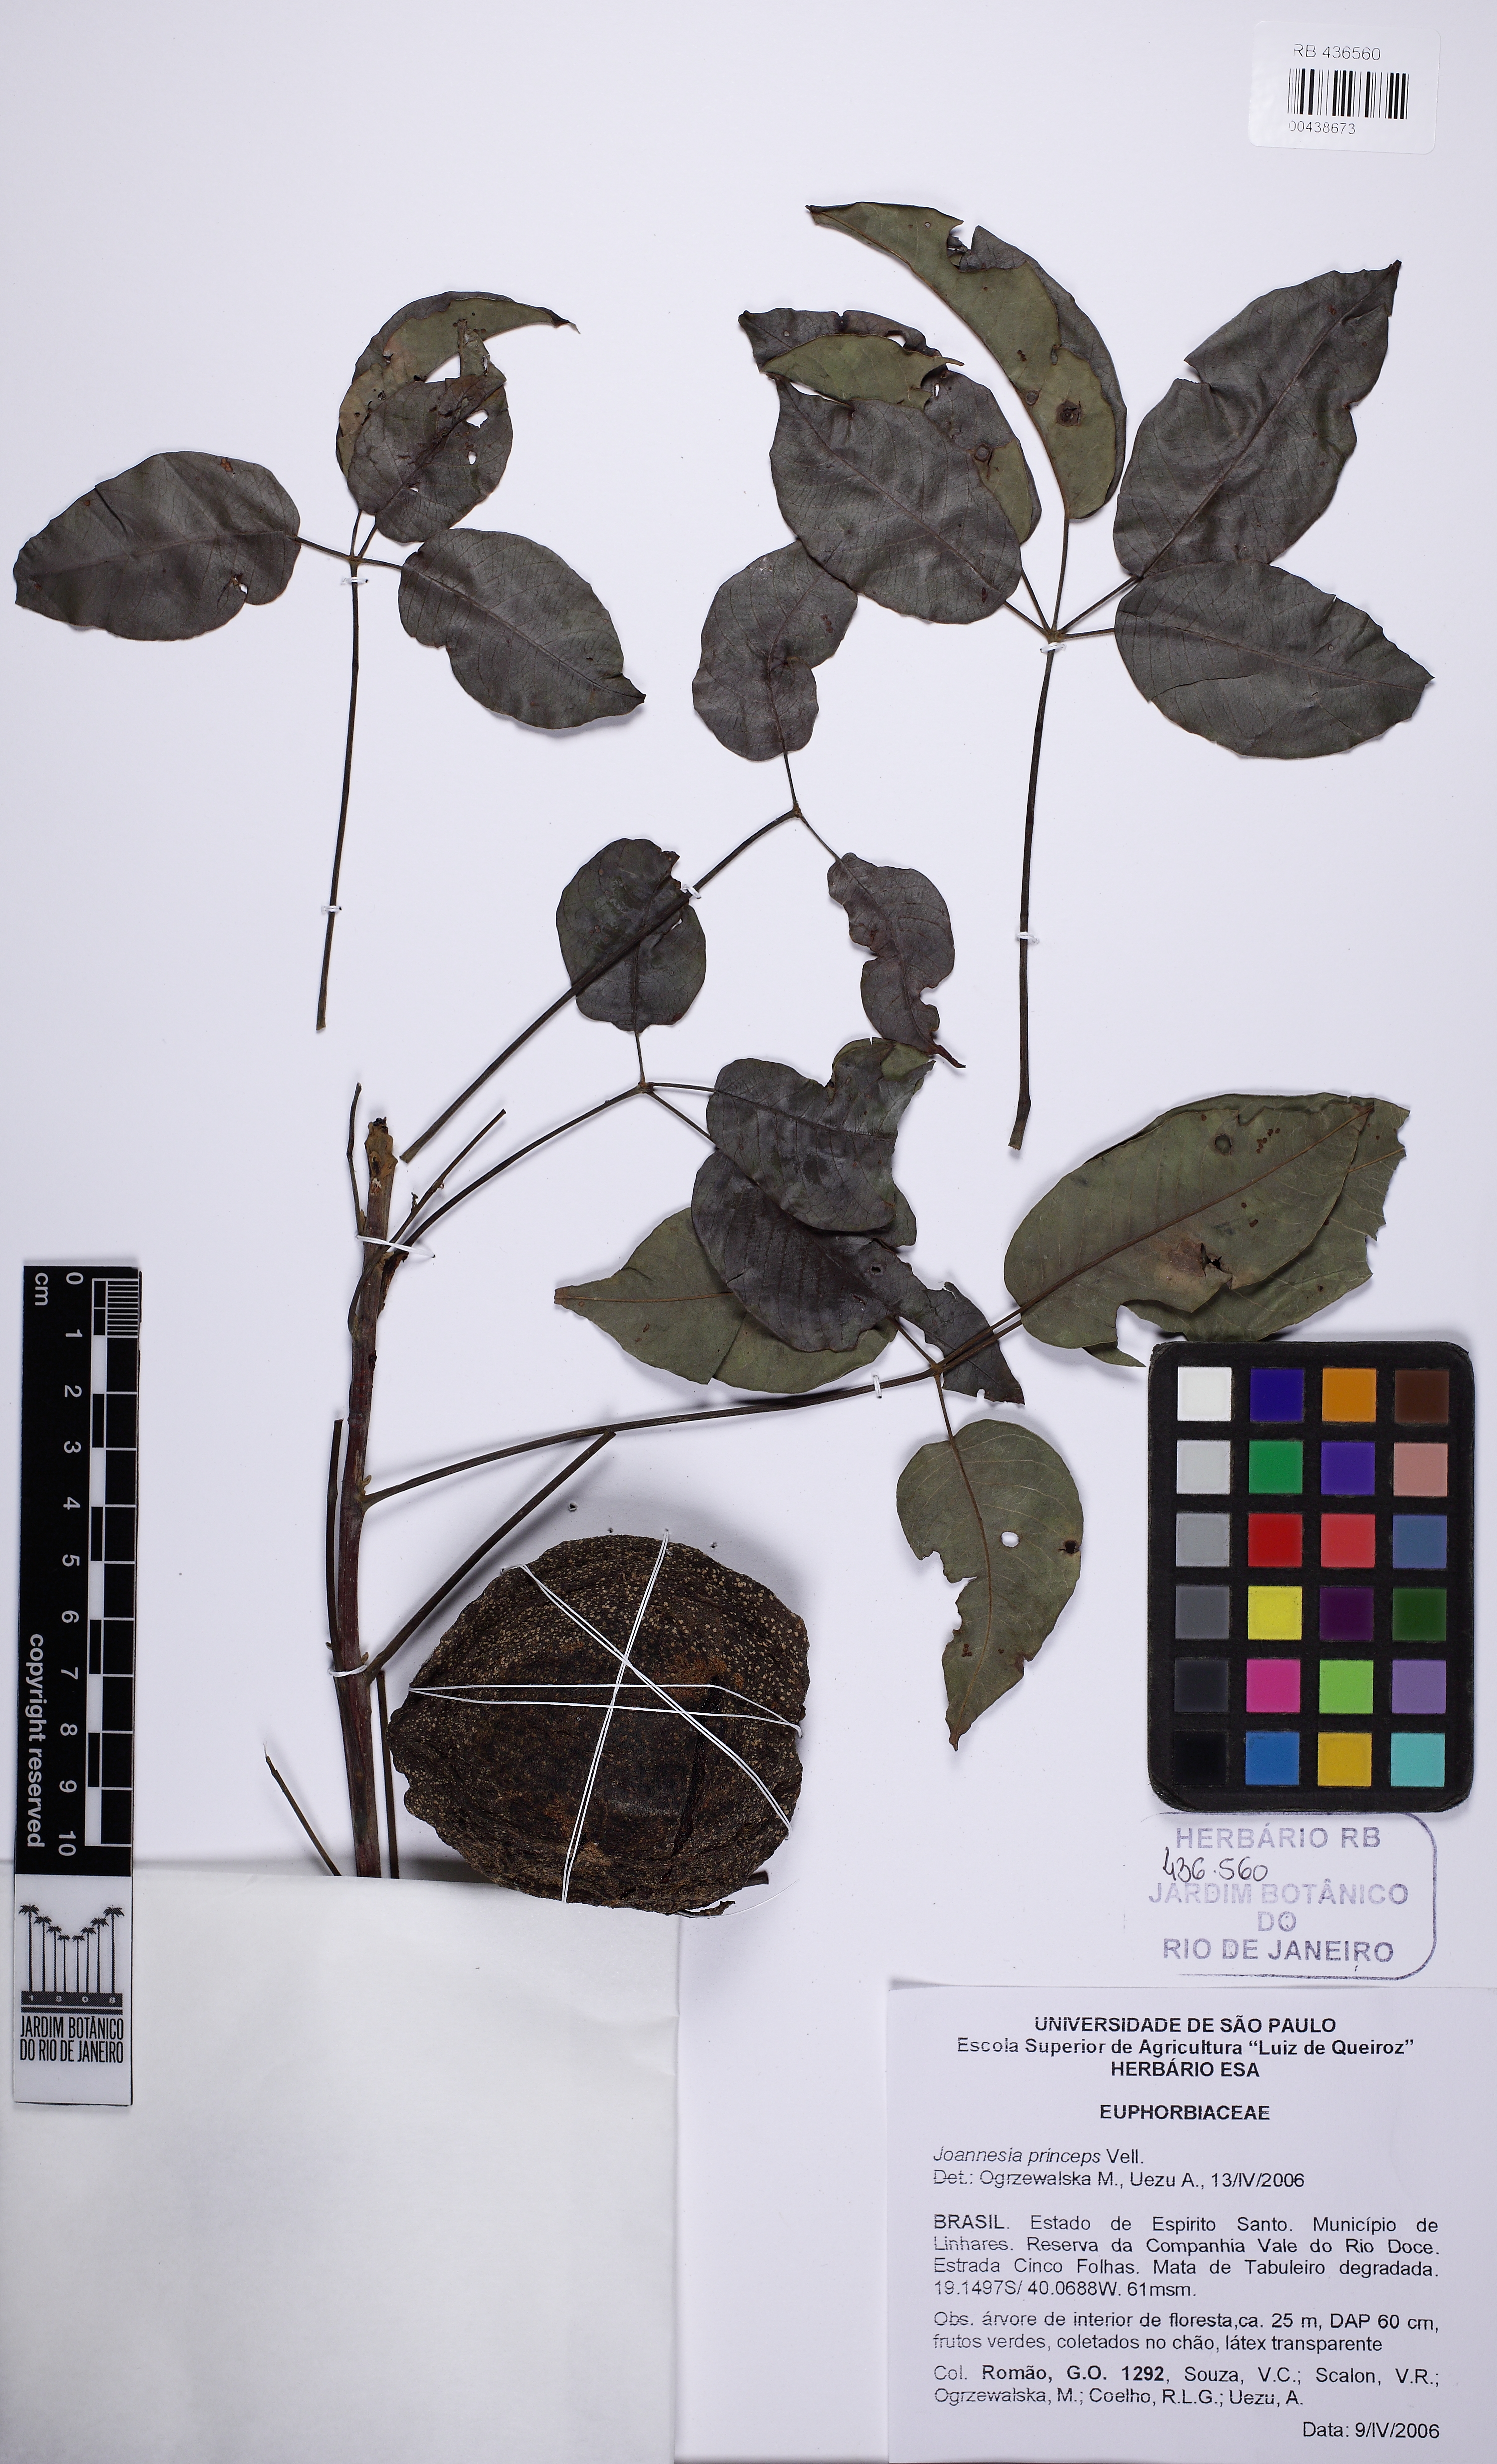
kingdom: Plantae
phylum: Tracheophyta
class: Magnoliopsida
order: Malpighiales
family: Euphorbiaceae
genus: Joannesia
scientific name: Joannesia princeps
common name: Arara nut-tree
